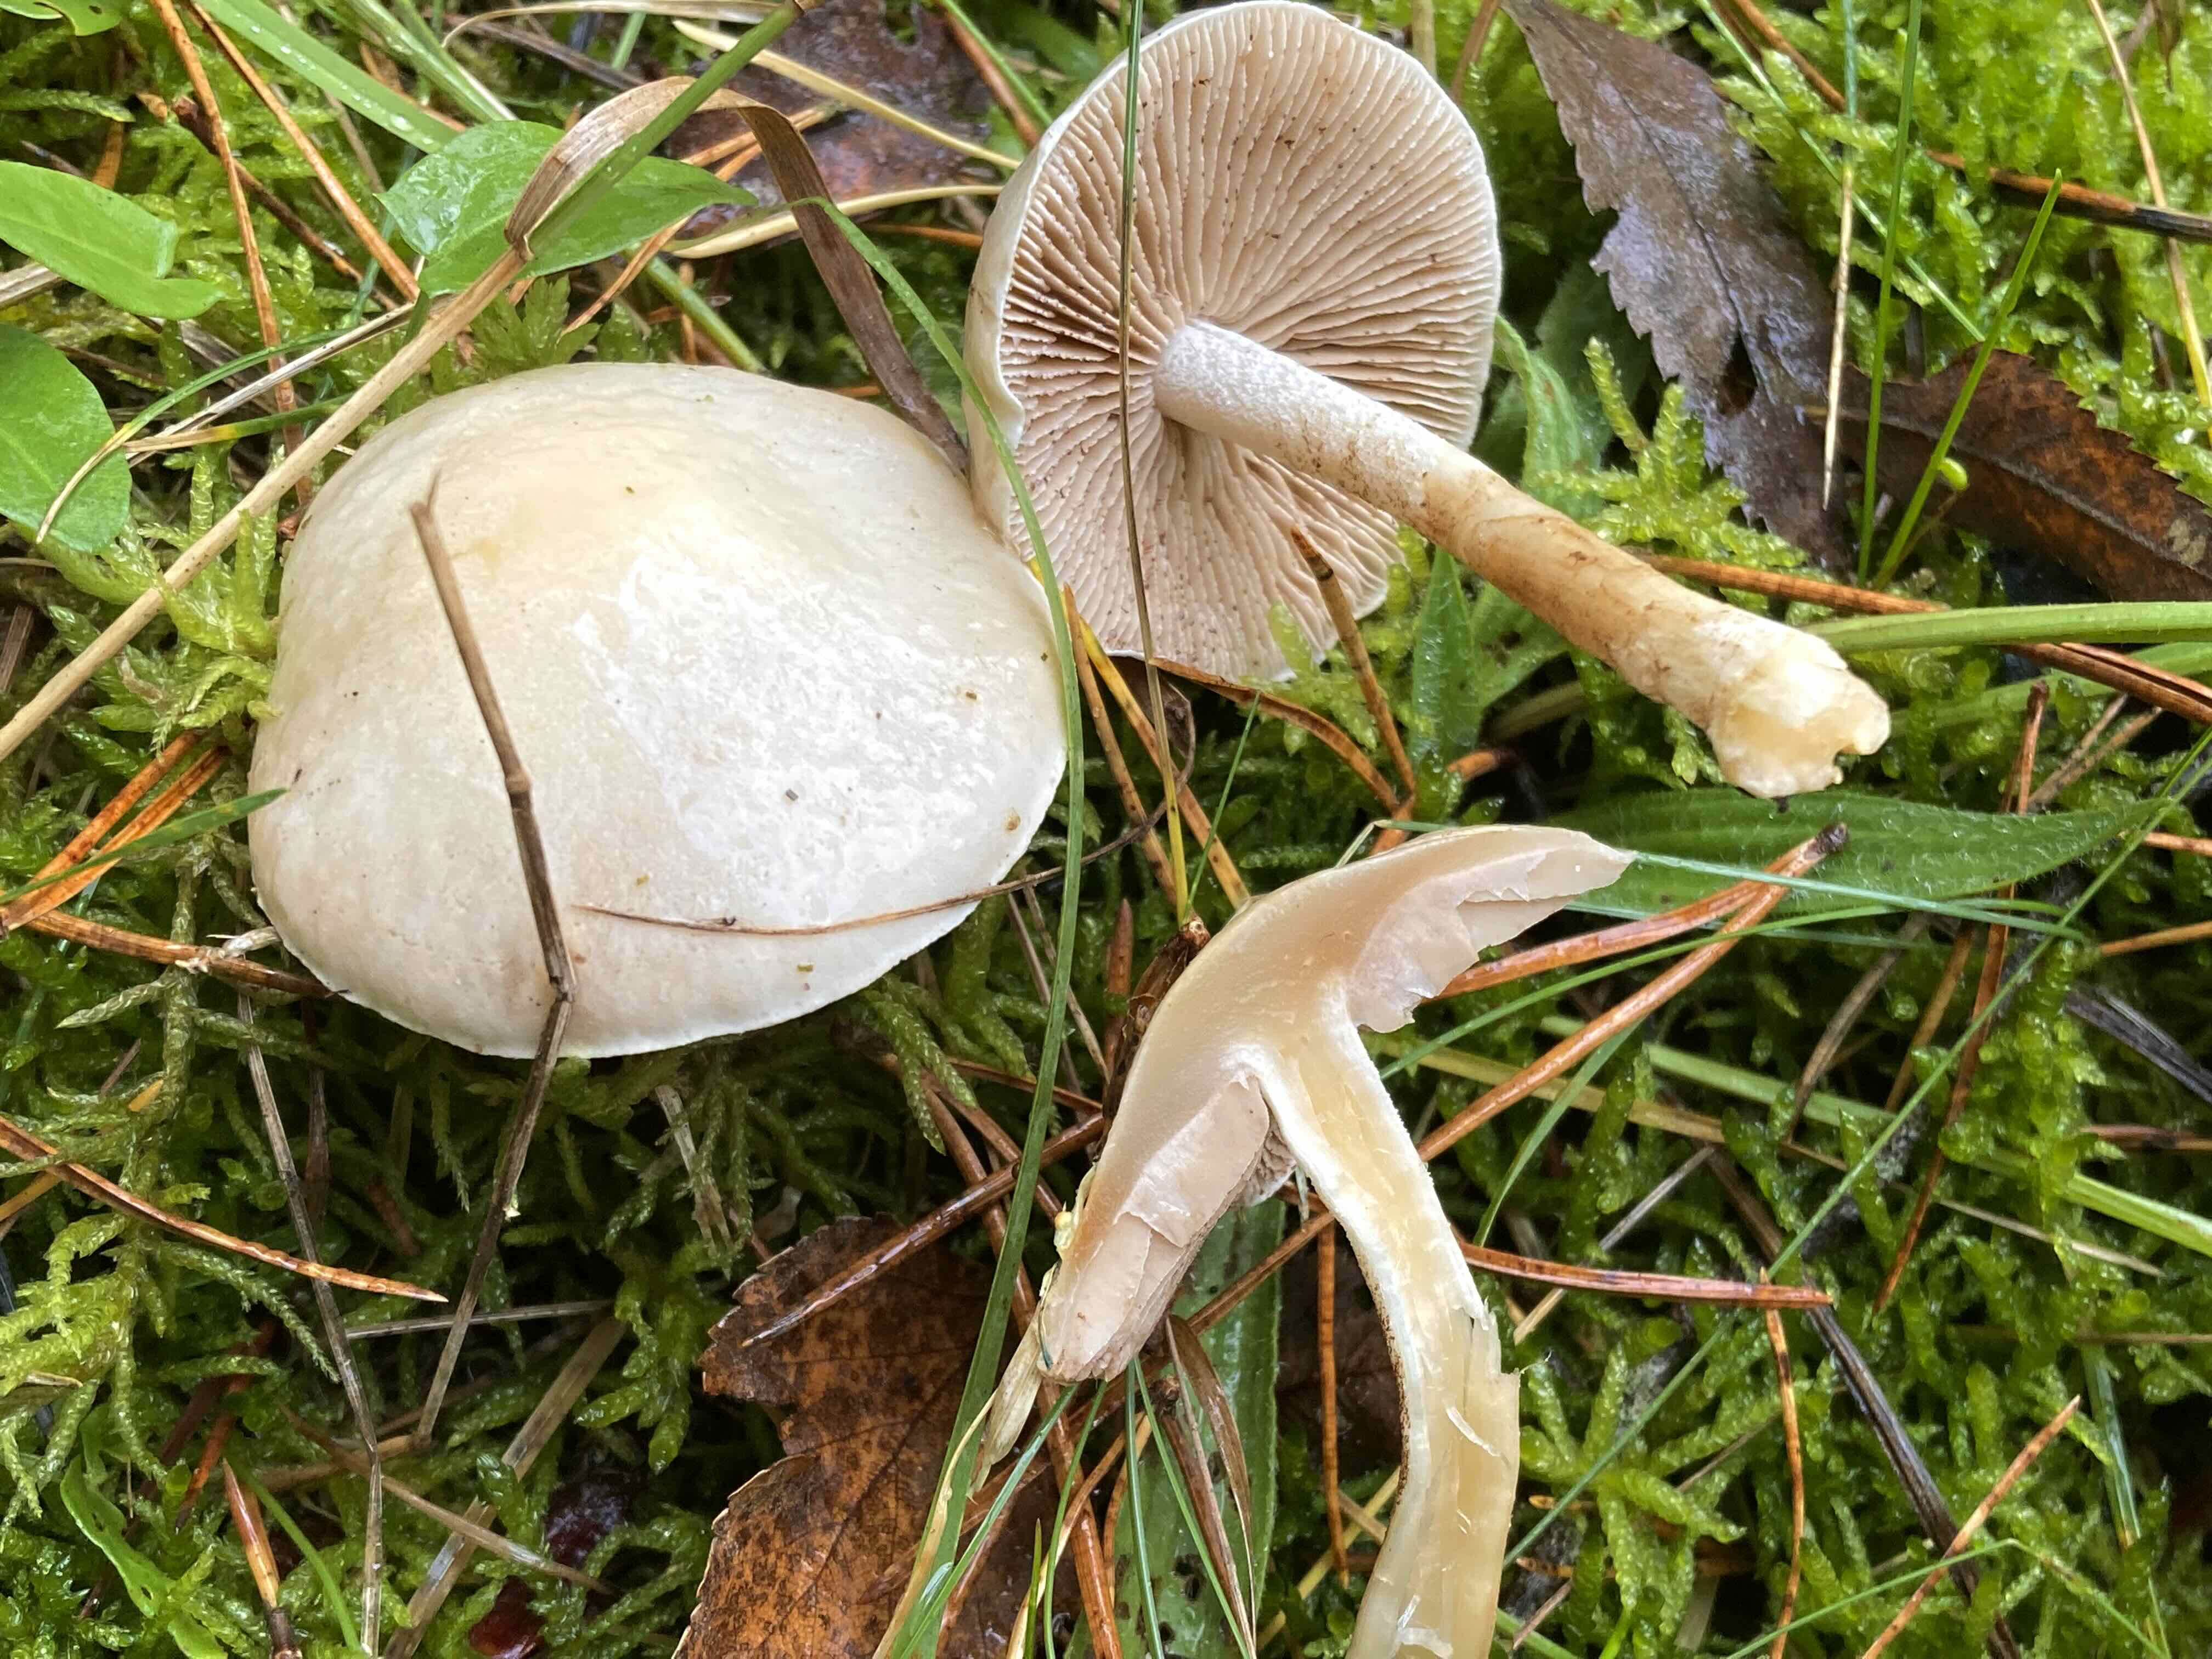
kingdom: Fungi
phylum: Basidiomycota
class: Agaricomycetes
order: Agaricales
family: Hymenogastraceae
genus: Hebeloma
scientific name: Hebeloma
